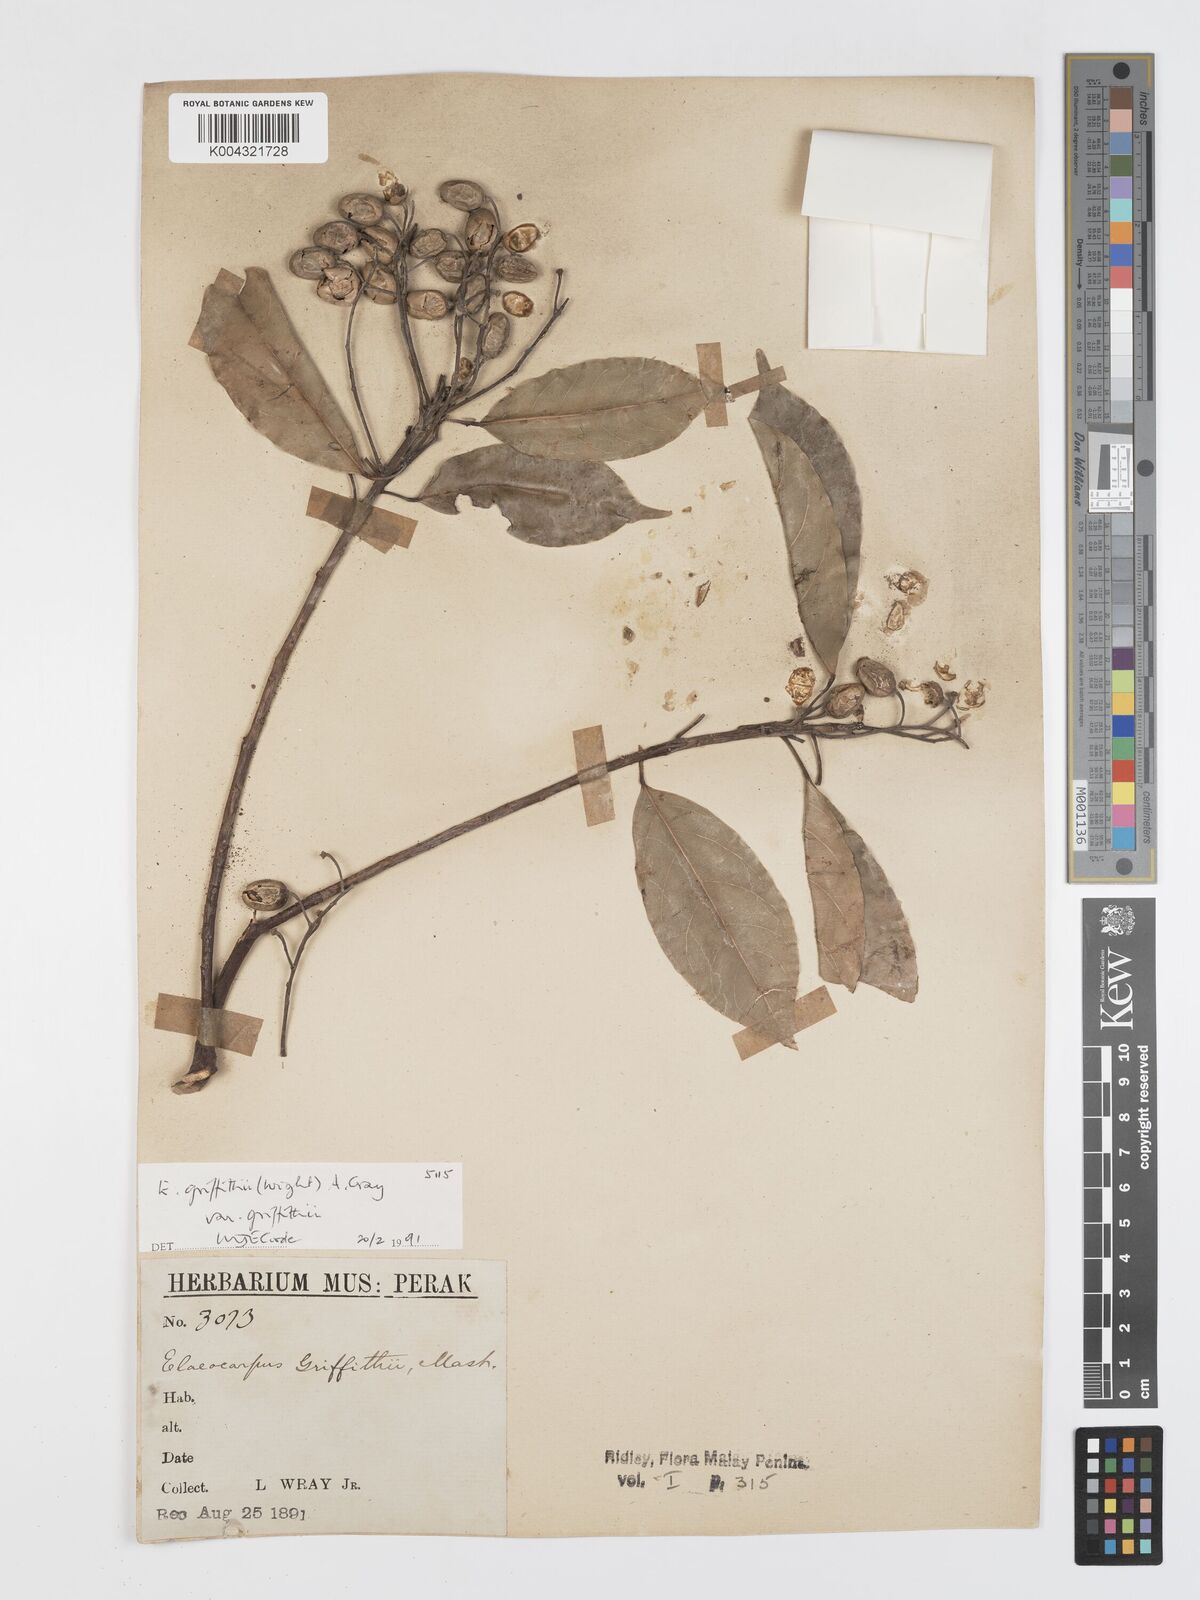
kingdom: Plantae
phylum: Tracheophyta
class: Magnoliopsida
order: Oxalidales
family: Elaeocarpaceae
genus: Elaeocarpus
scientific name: Elaeocarpus griffithii
